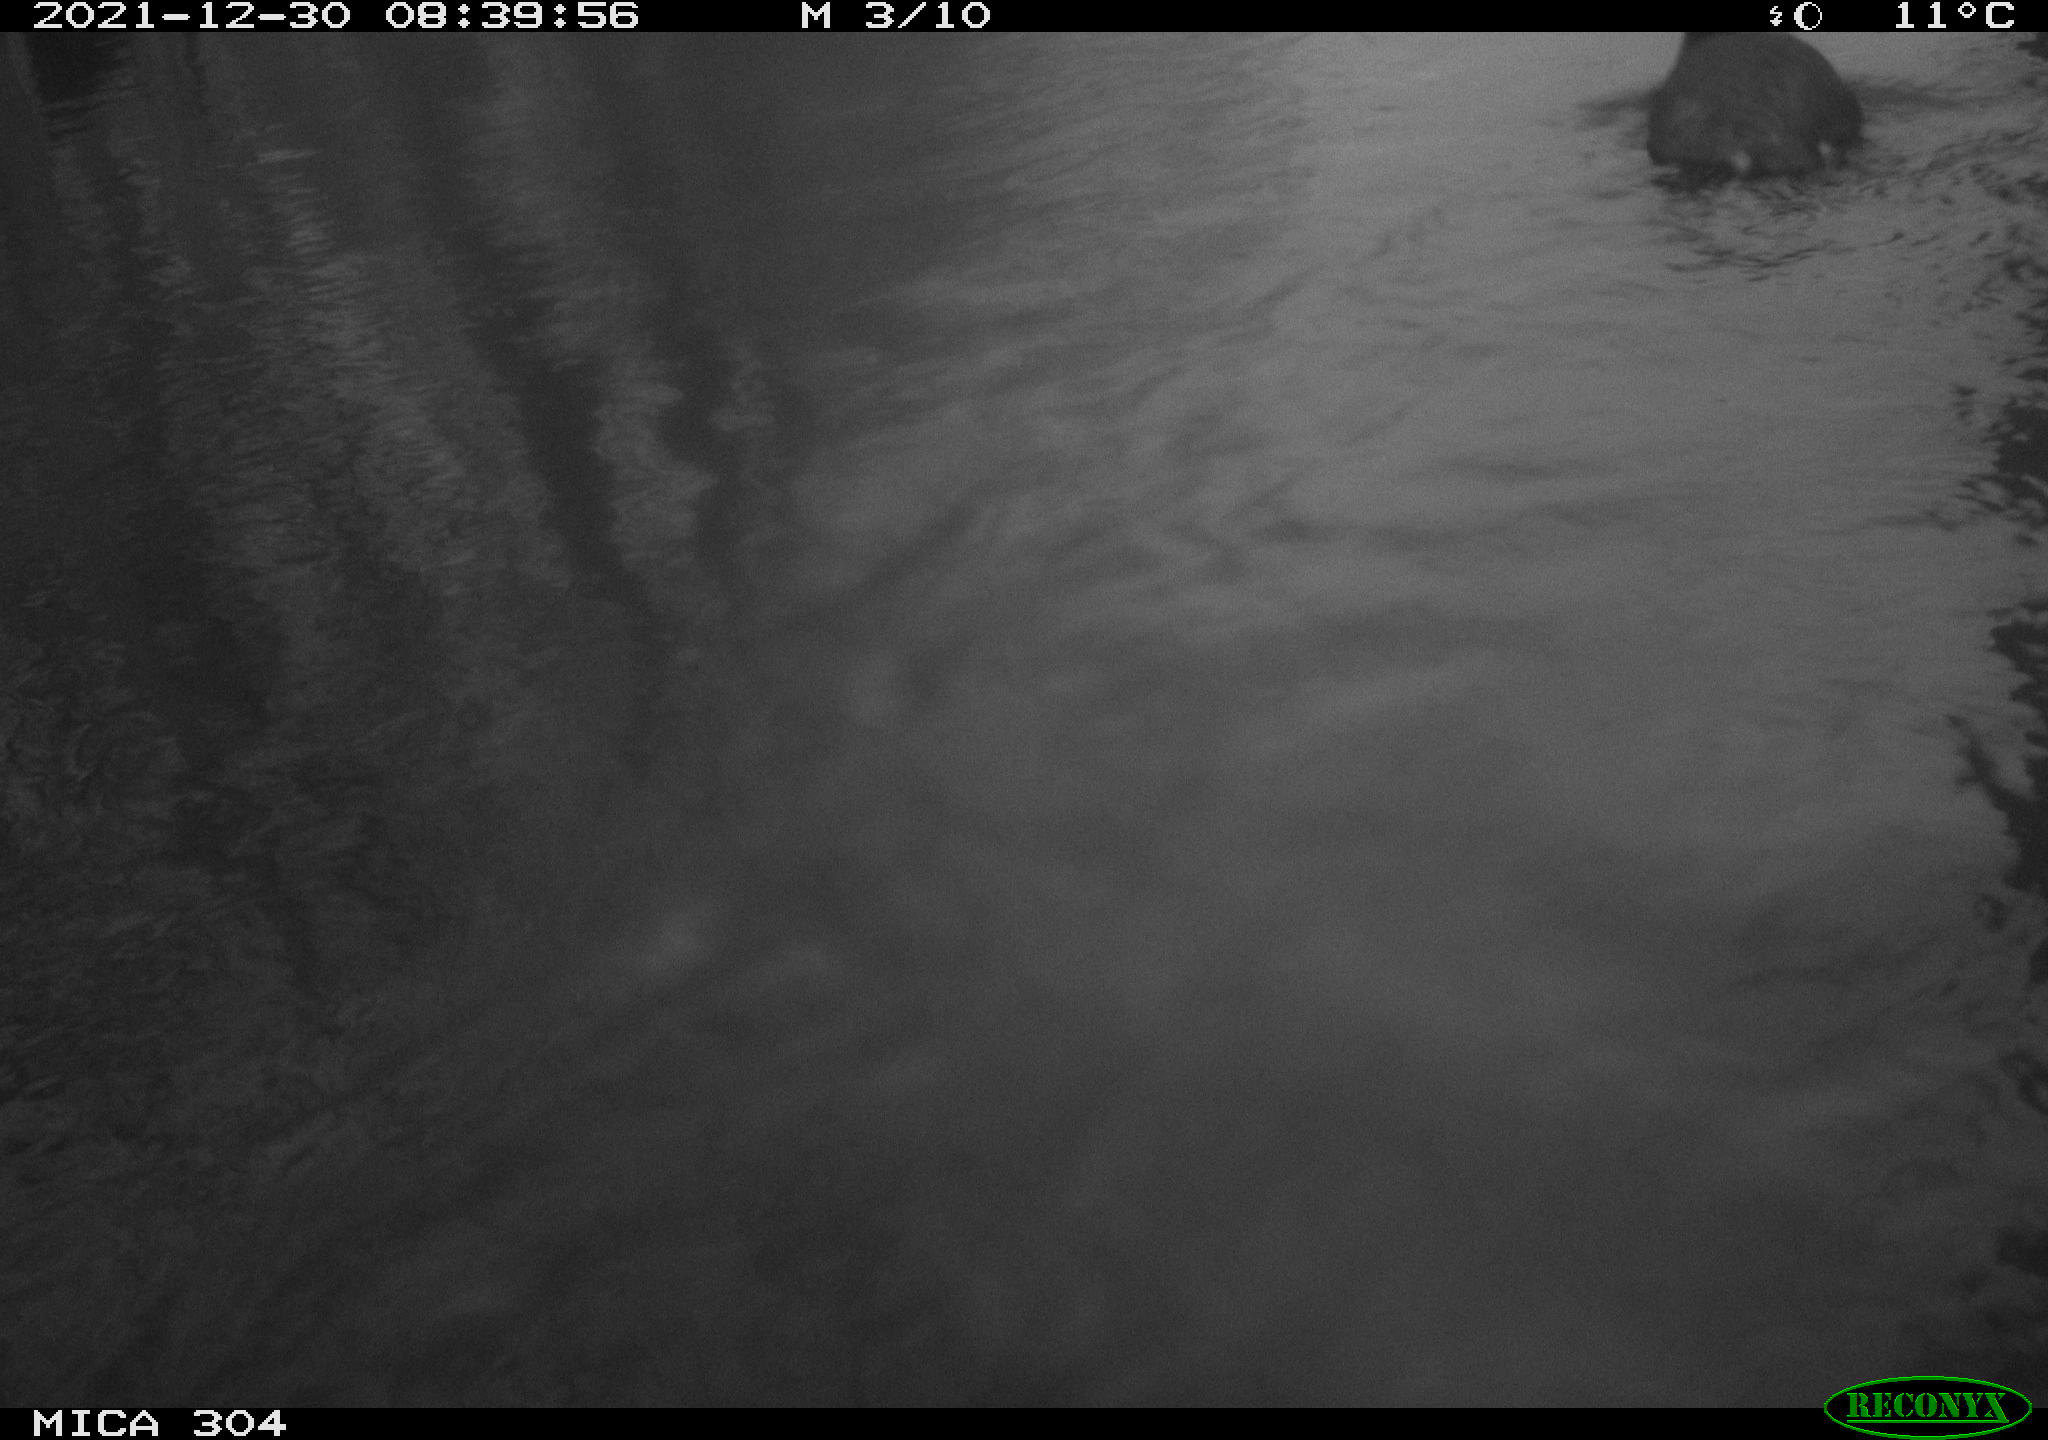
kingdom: Animalia
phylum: Chordata
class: Aves
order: Gruiformes
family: Rallidae
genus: Fulica
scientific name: Fulica atra
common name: Eurasian coot
